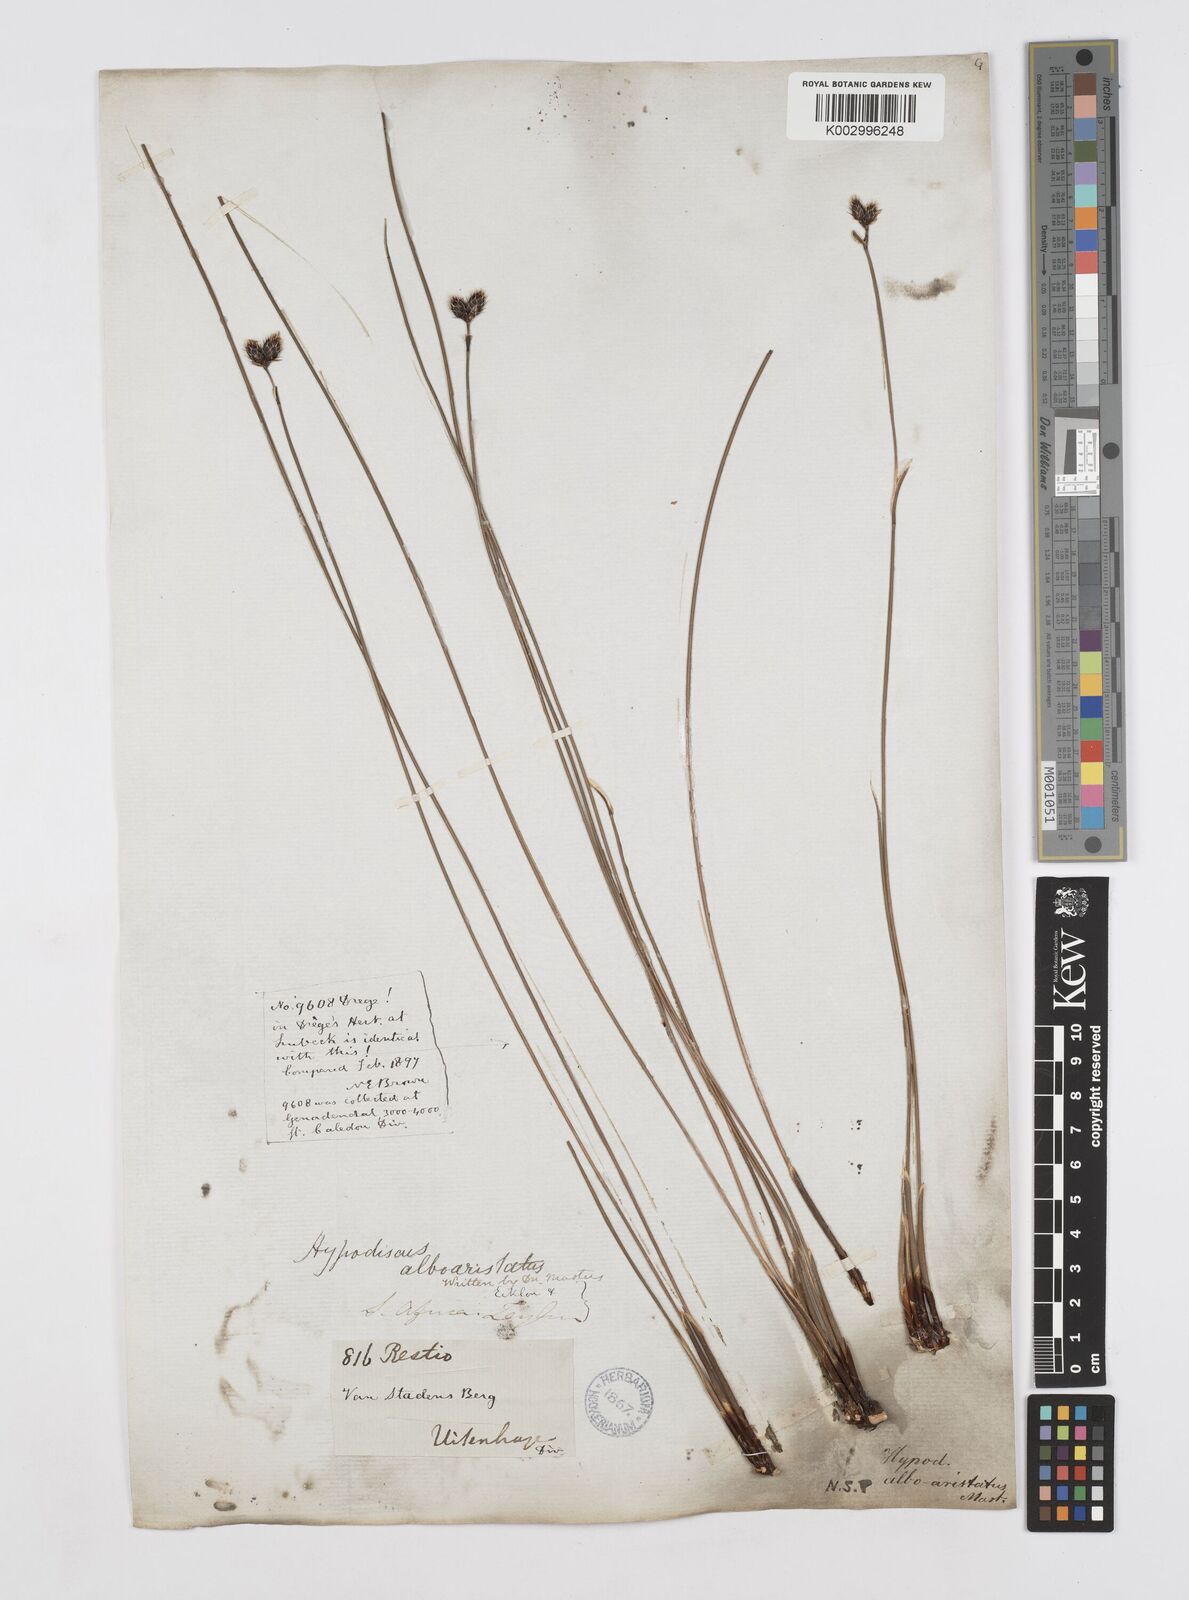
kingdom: Plantae
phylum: Tracheophyta
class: Liliopsida
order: Poales
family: Restionaceae
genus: Hypodiscus
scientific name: Hypodiscus alboaristatus
